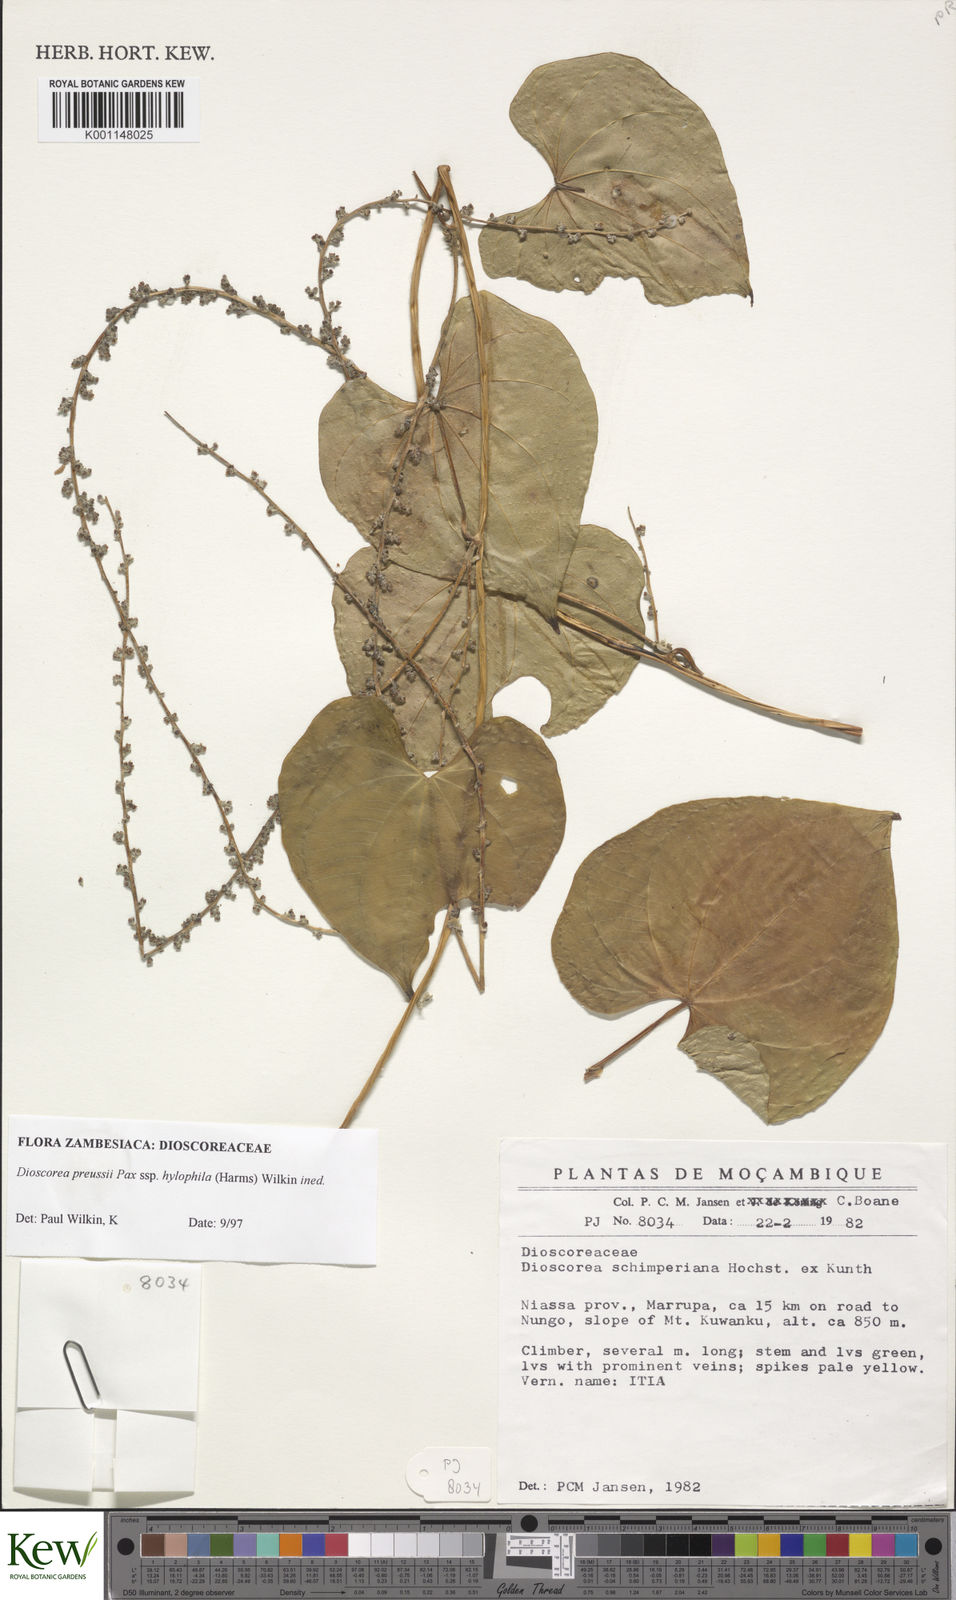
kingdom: Plantae
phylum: Tracheophyta
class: Liliopsida
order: Dioscoreales
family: Dioscoreaceae
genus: Dioscorea
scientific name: Dioscorea preussii
